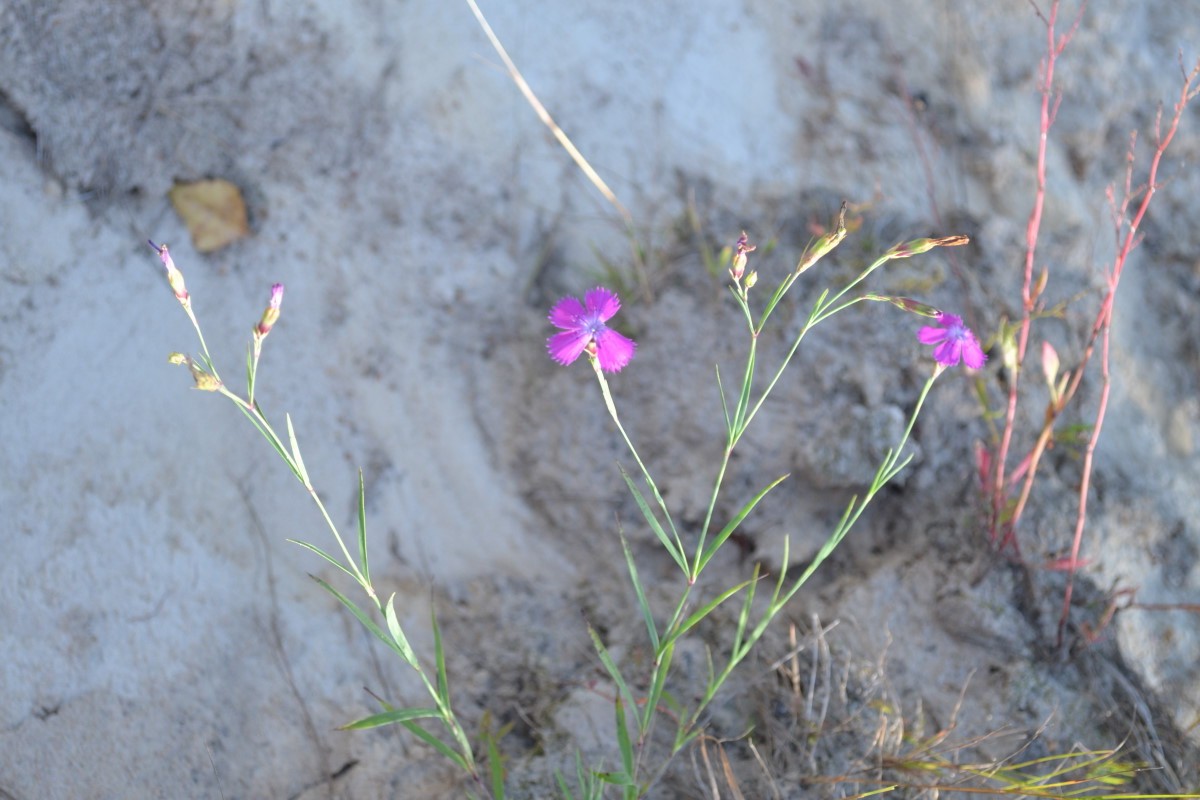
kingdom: Plantae
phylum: Tracheophyta
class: Magnoliopsida
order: Caryophyllales
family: Caryophyllaceae
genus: Dianthus
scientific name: Dianthus deltoides
